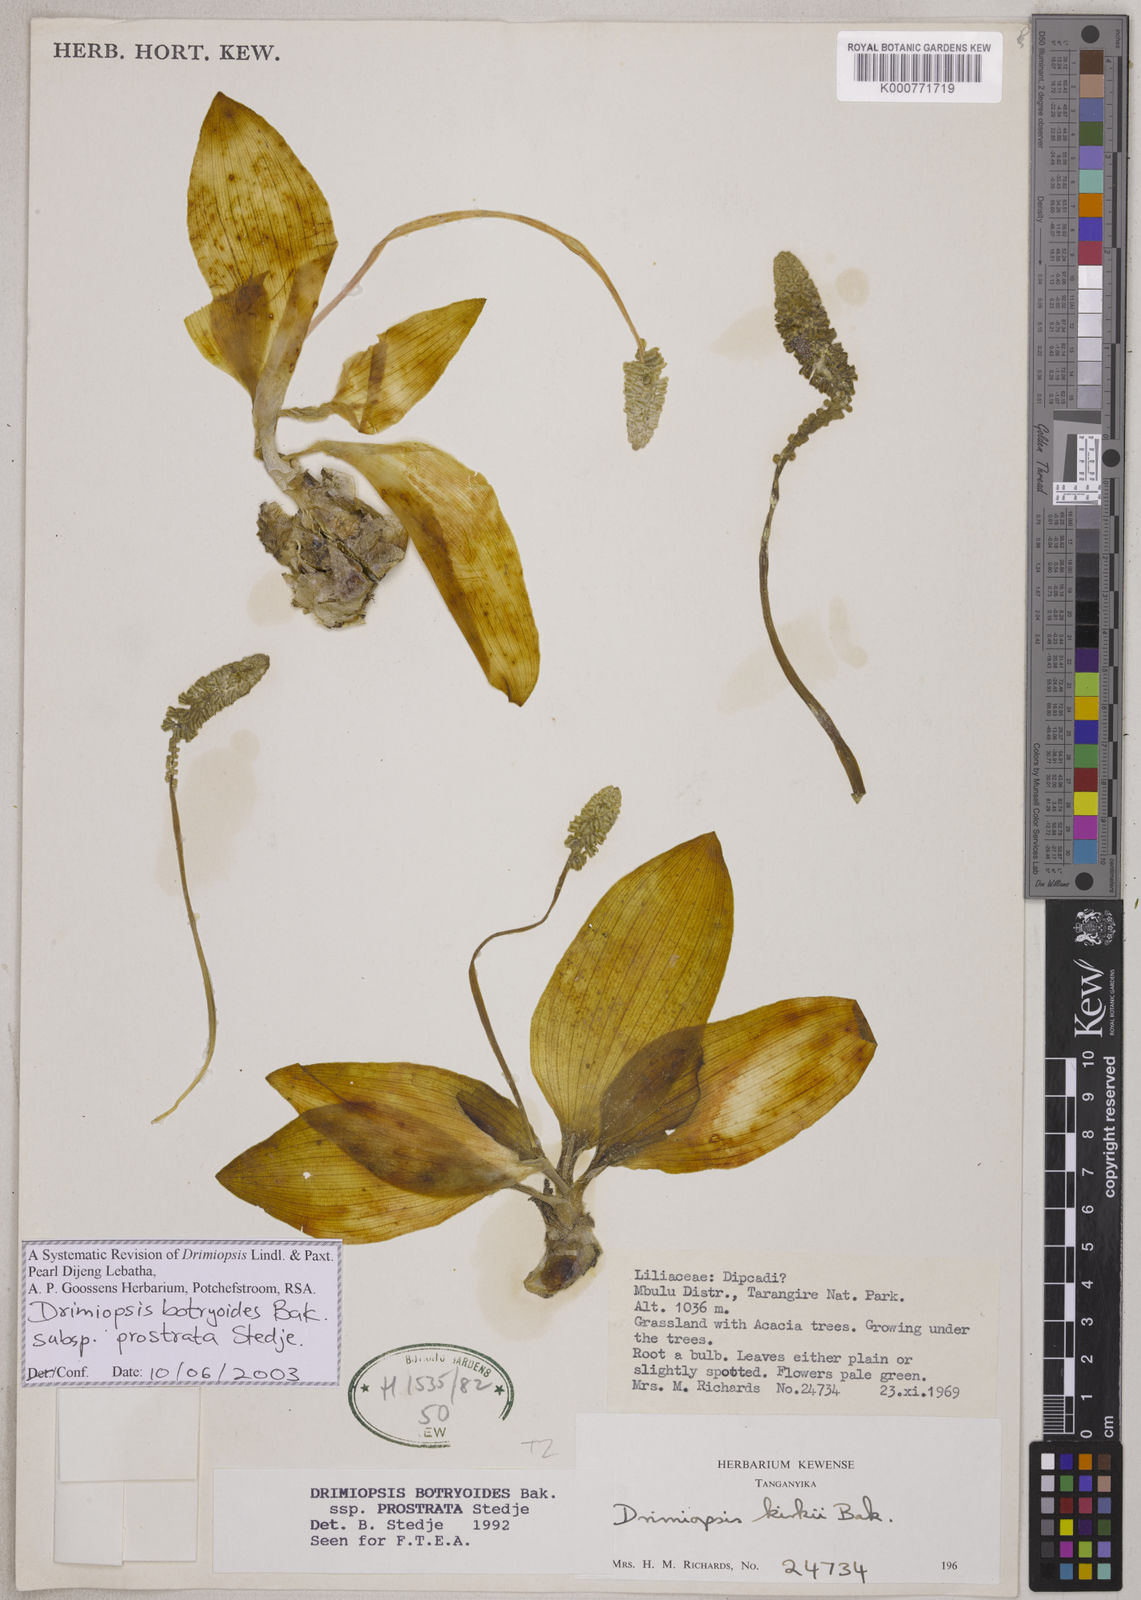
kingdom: Plantae
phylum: Tracheophyta
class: Liliopsida
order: Asparagales
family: Asparagaceae
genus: Drimiopsis
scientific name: Drimiopsis botryoides
